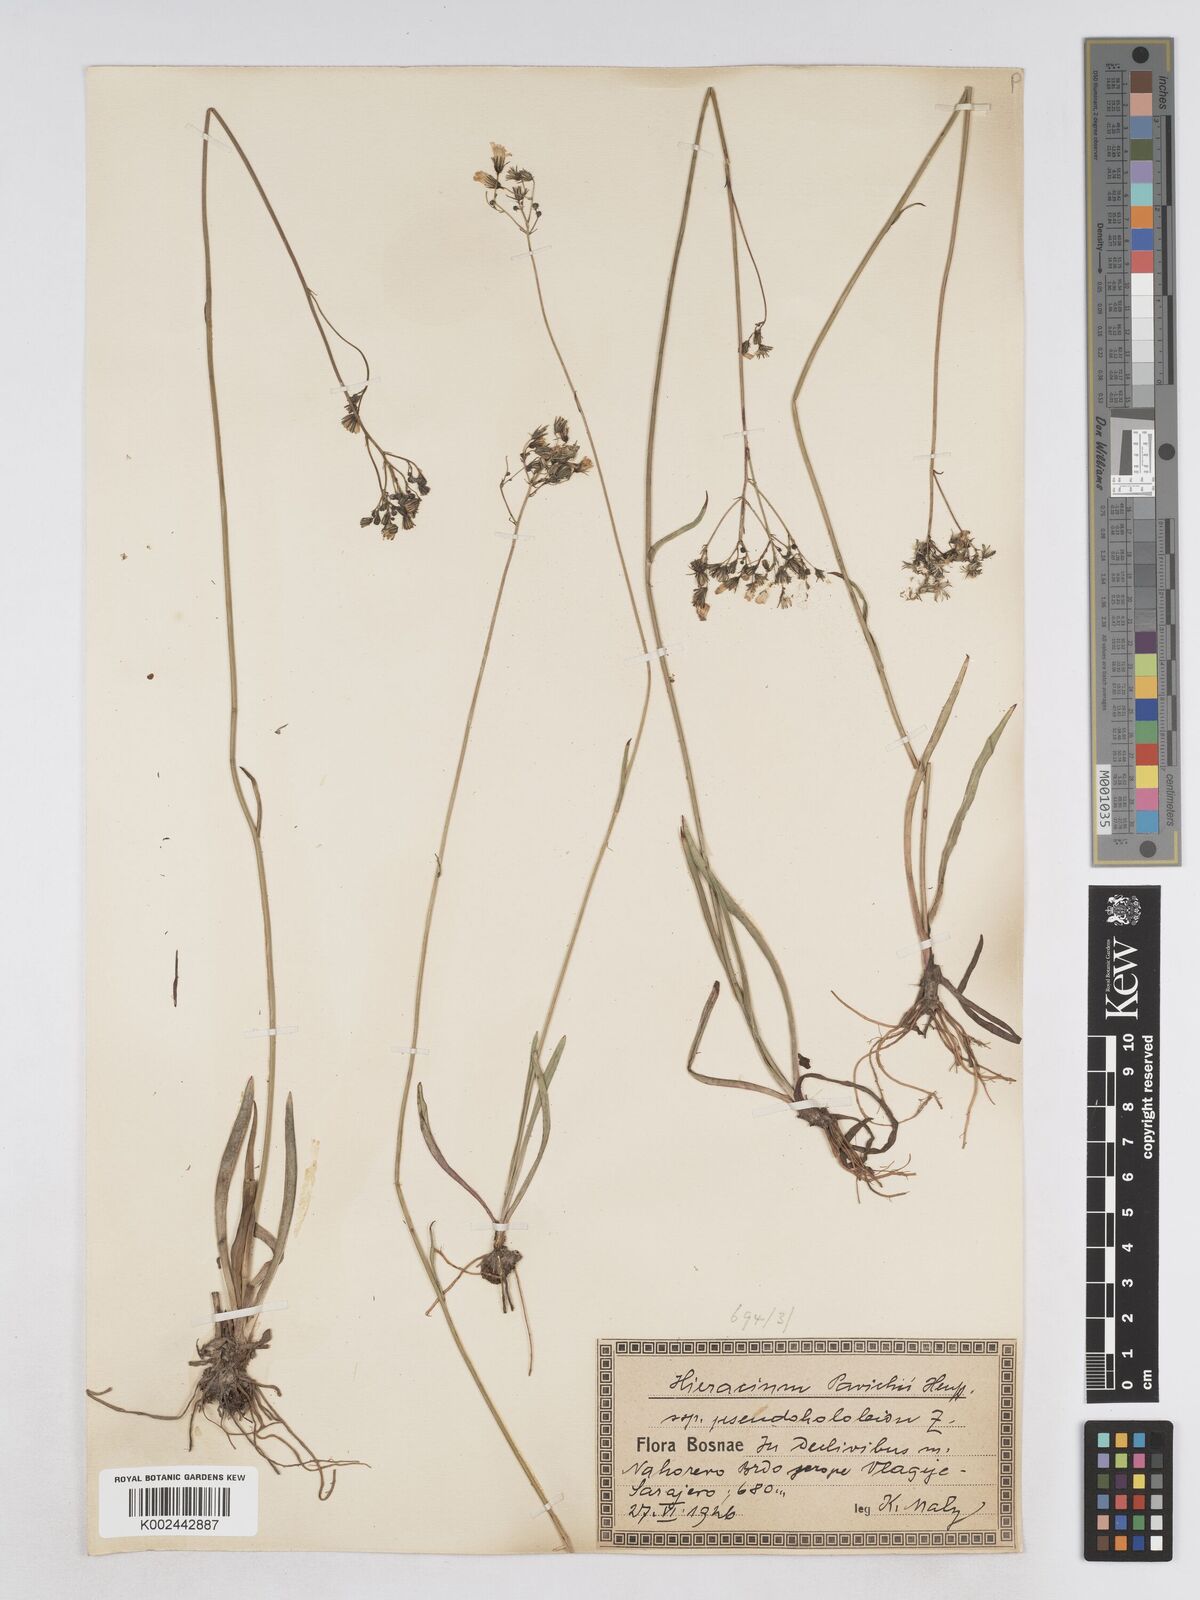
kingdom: Plantae
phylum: Tracheophyta
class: Magnoliopsida
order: Asterales
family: Asteraceae
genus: Pilosella
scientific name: Pilosella pavichii
